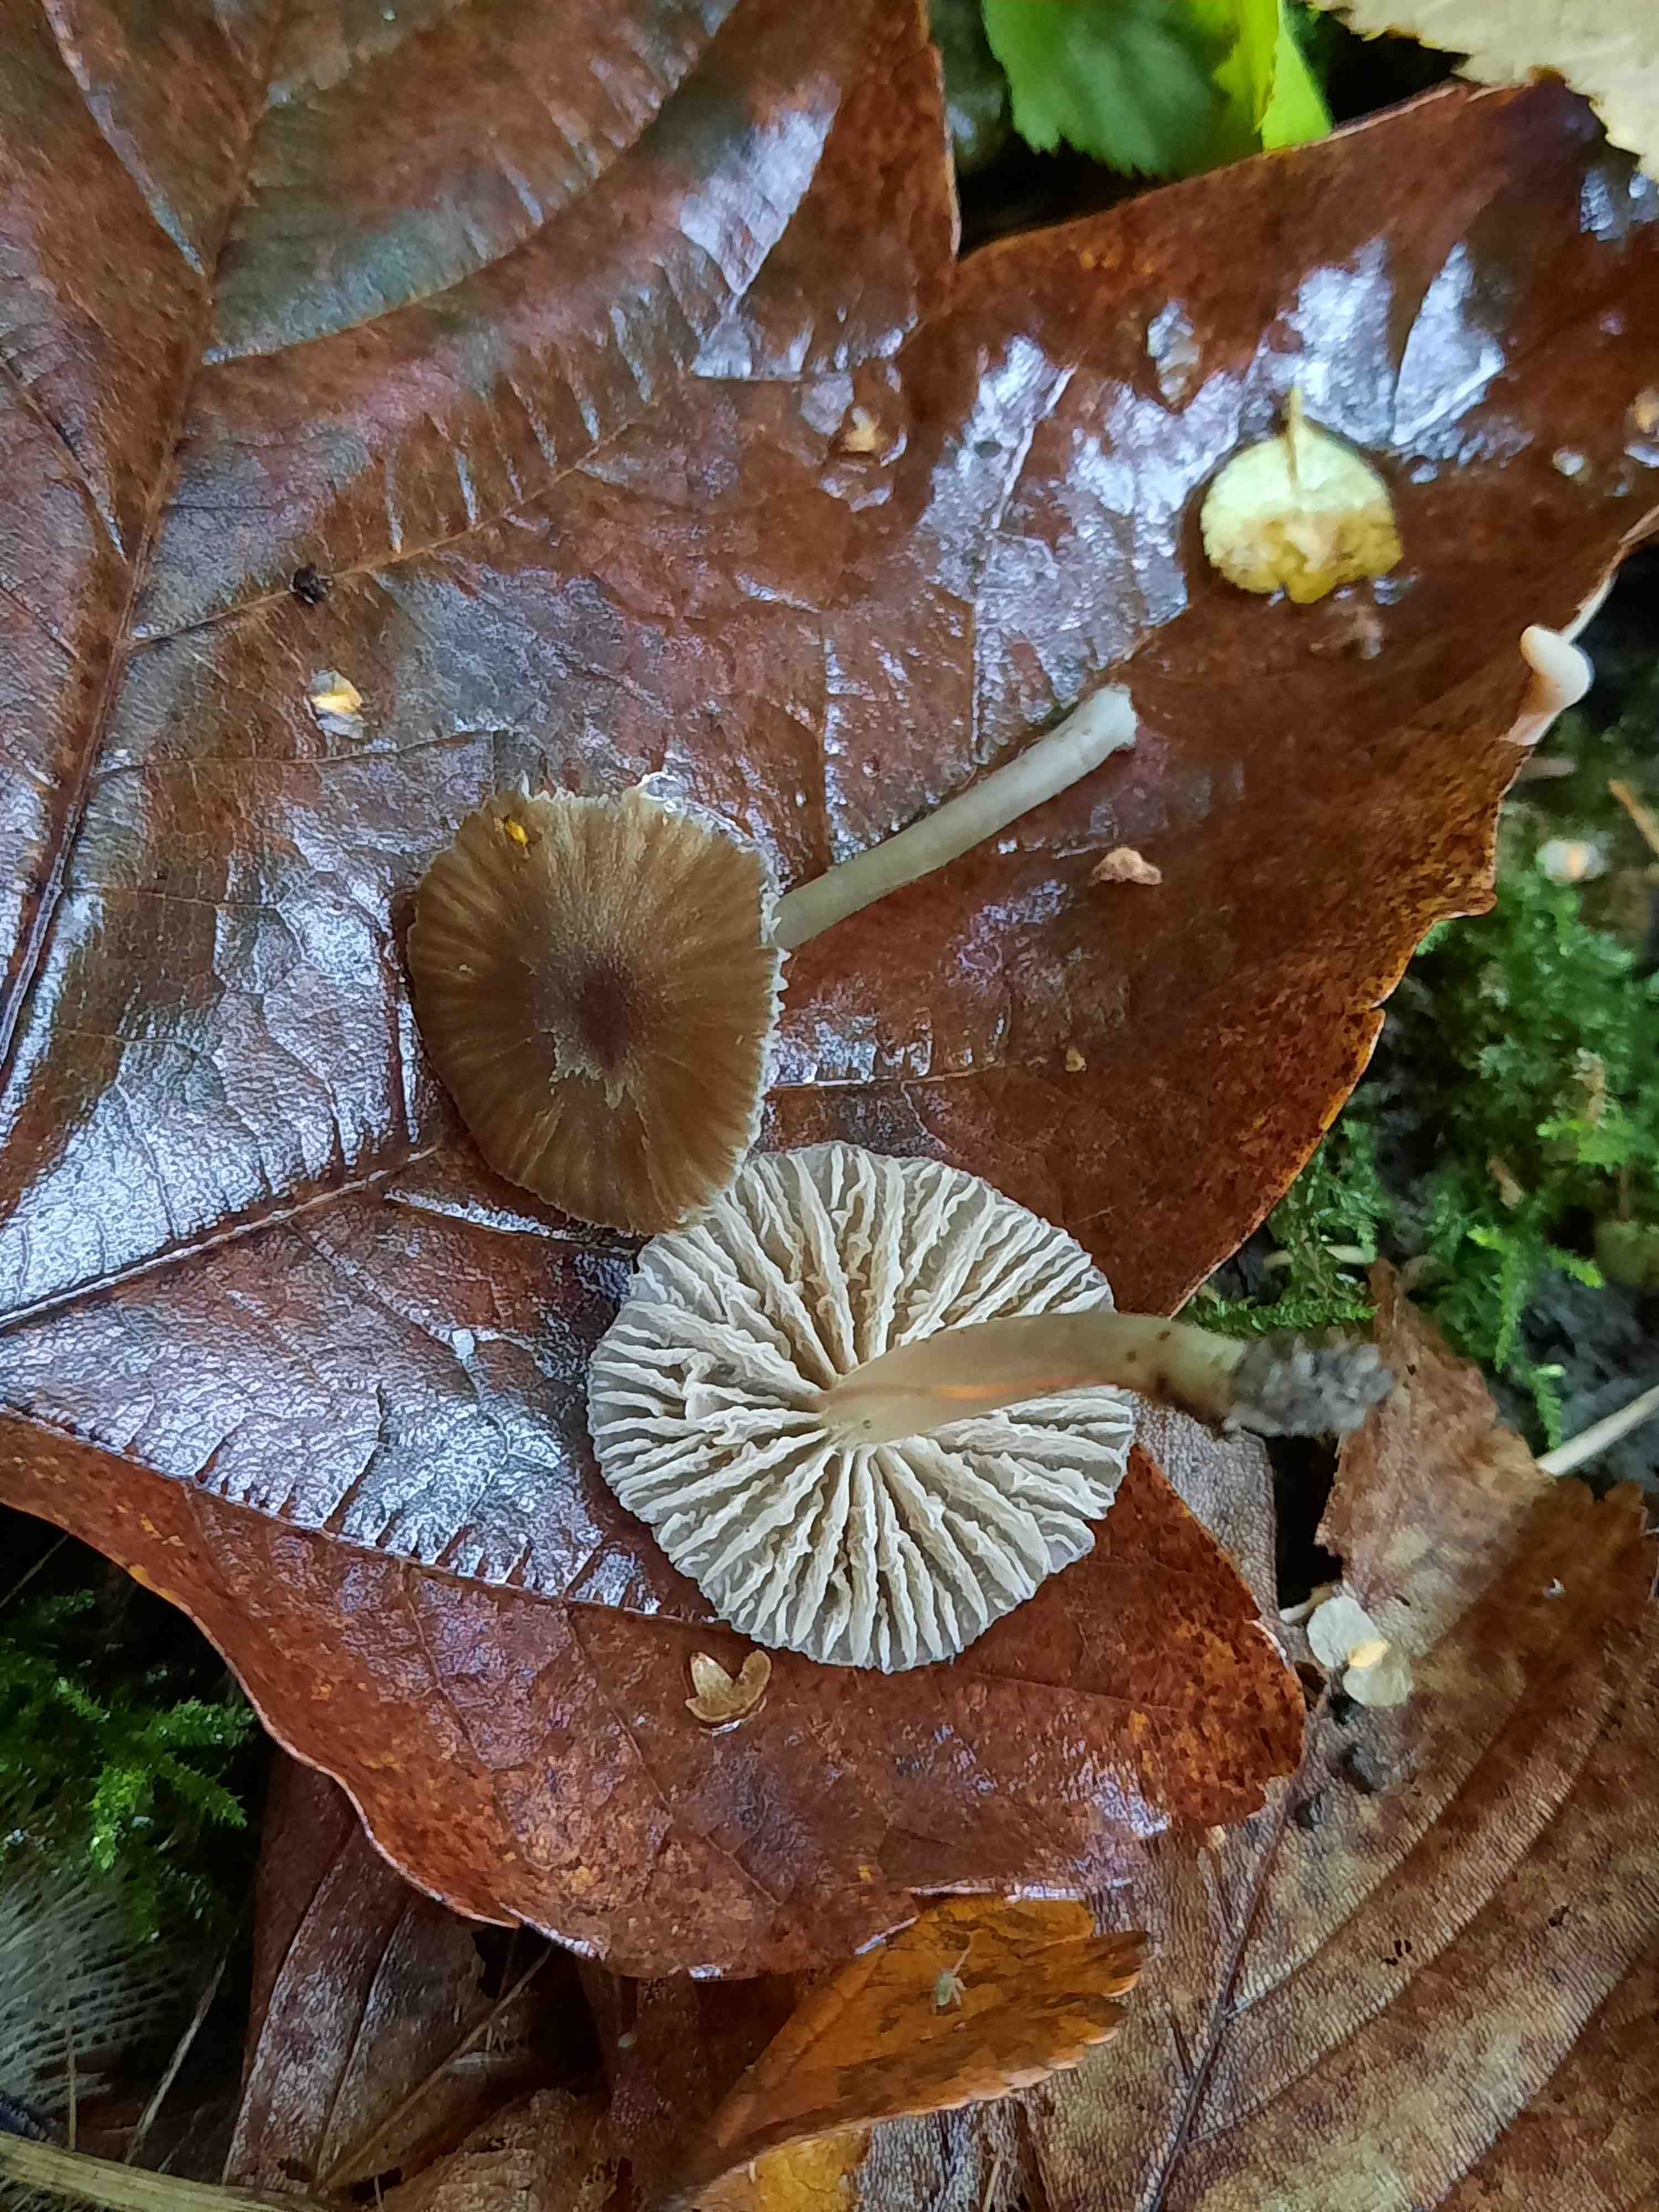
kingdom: Fungi
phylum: Basidiomycota
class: Agaricomycetes
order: Agaricales
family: Entolomataceae
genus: Entoloma
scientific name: Entoloma
